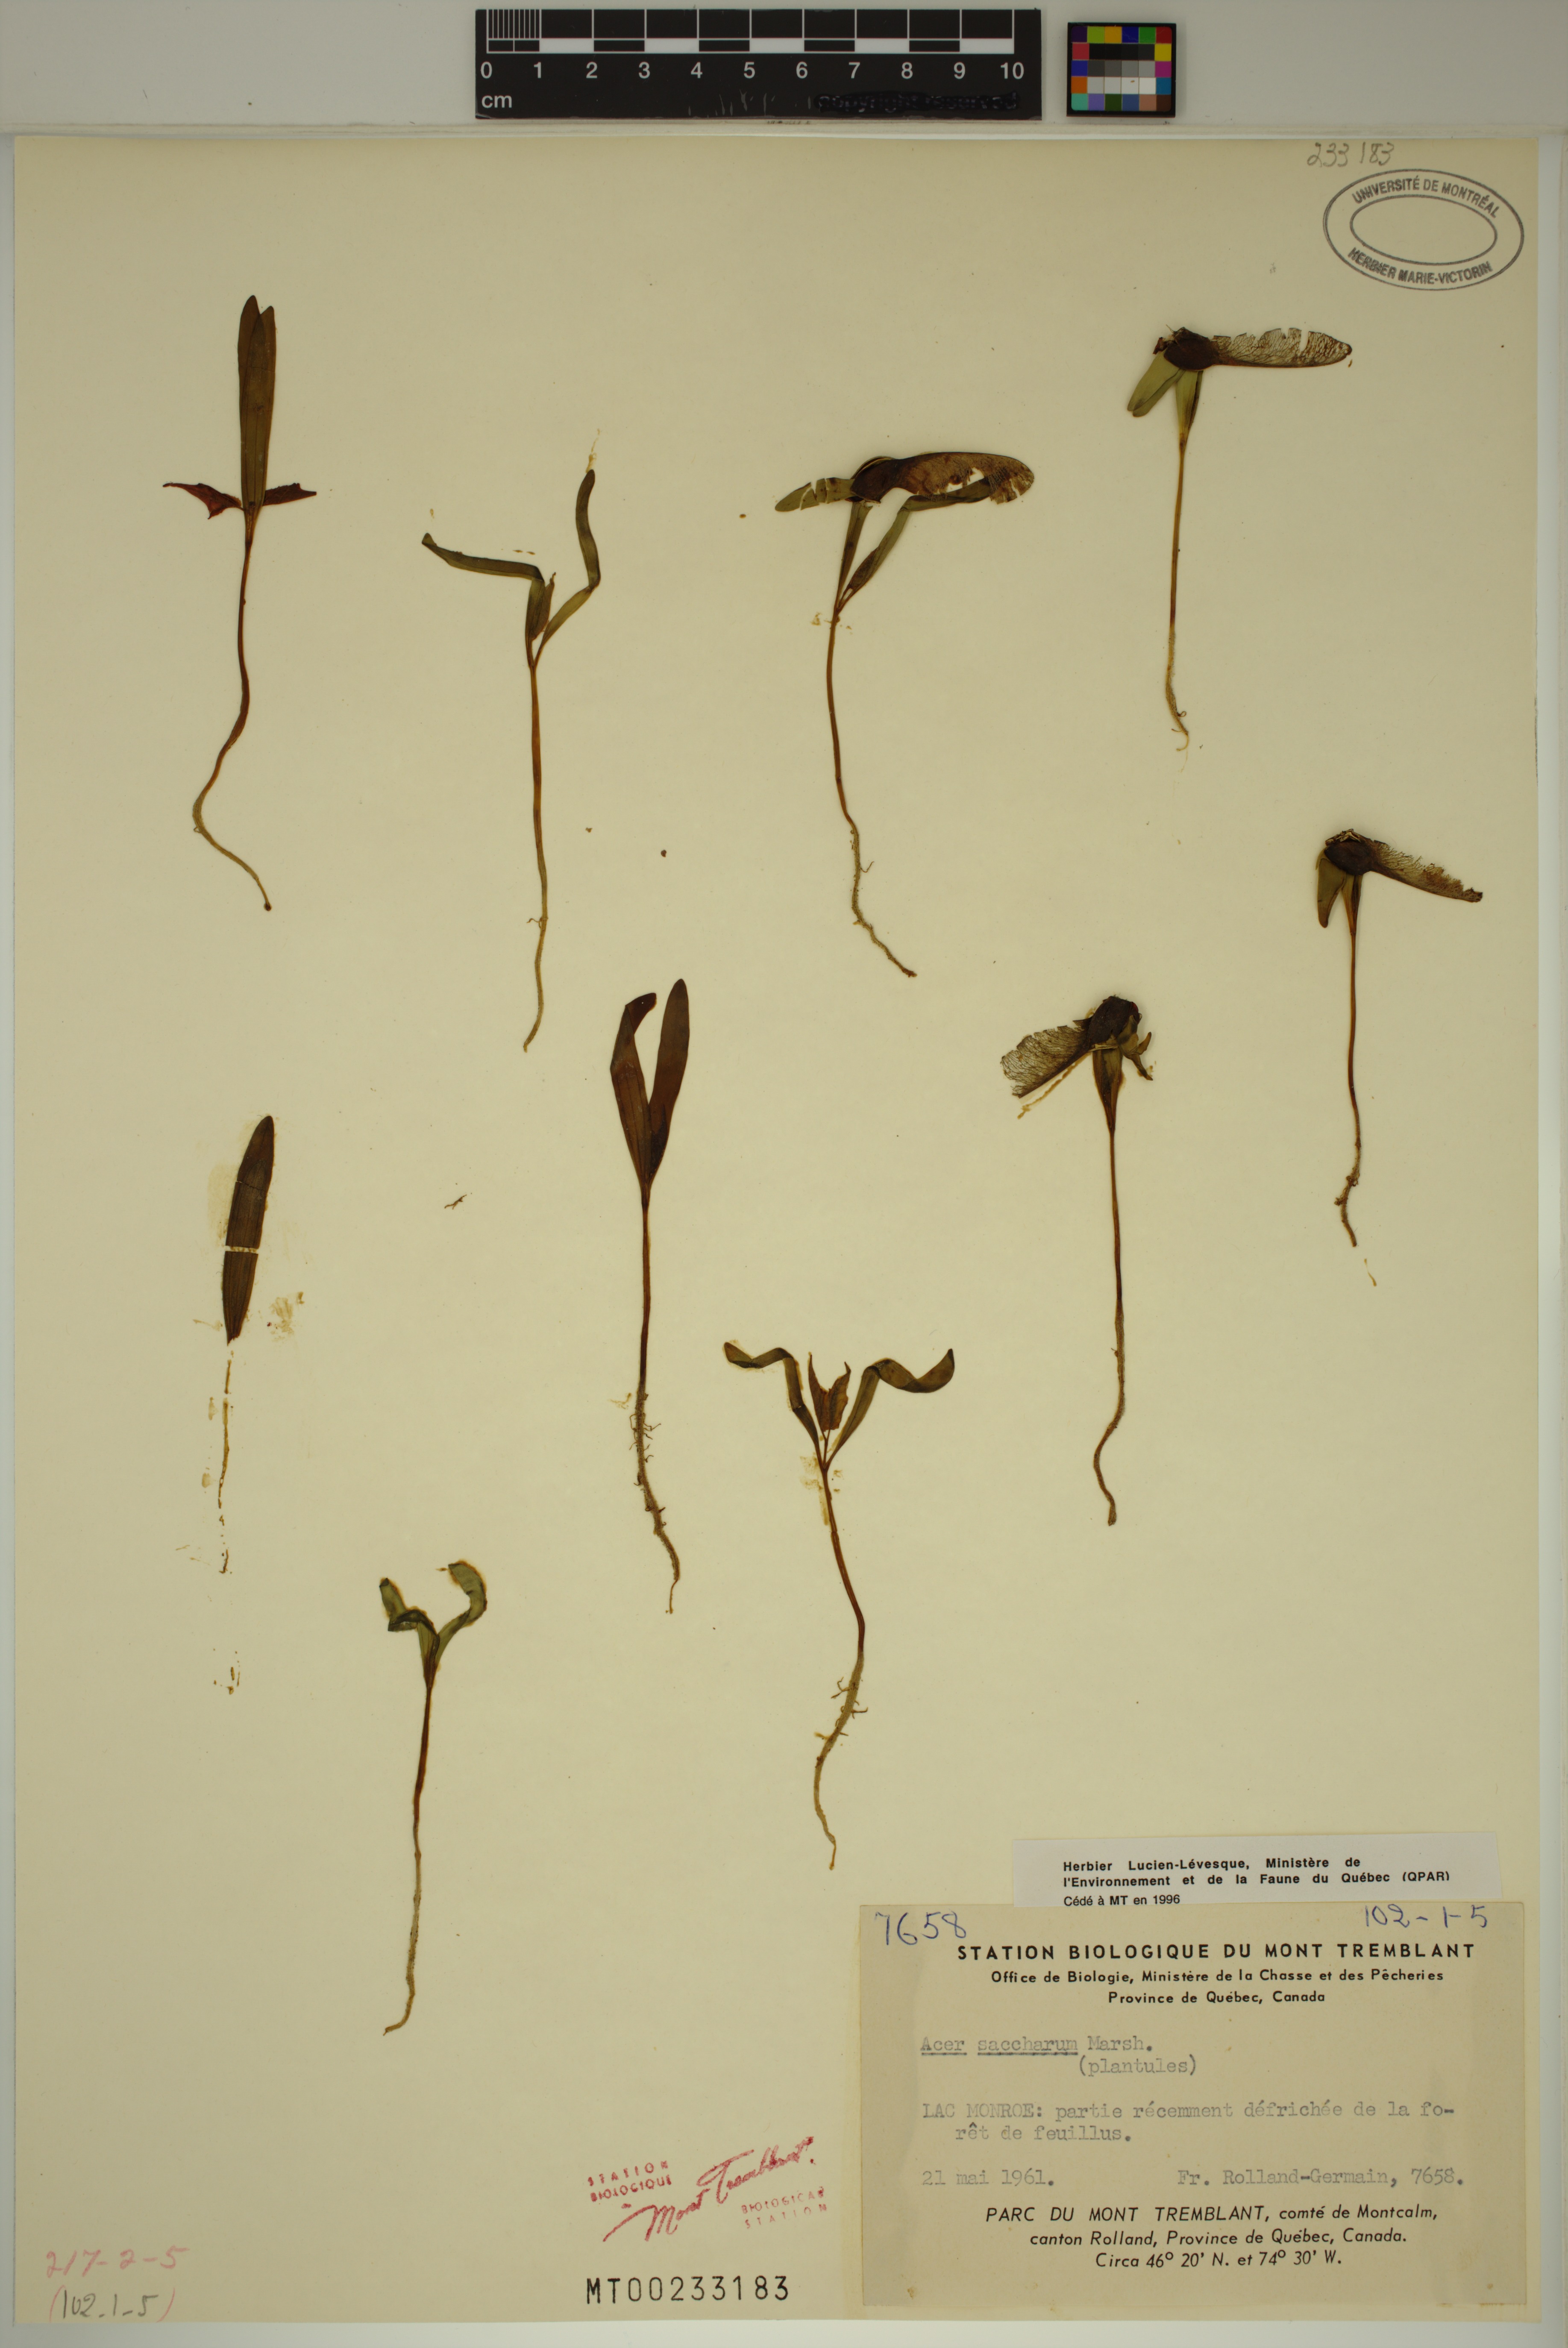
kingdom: Plantae
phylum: Tracheophyta
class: Magnoliopsida
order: Sapindales
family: Sapindaceae
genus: Acer
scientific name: Acer saccharum
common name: Sugar maple
